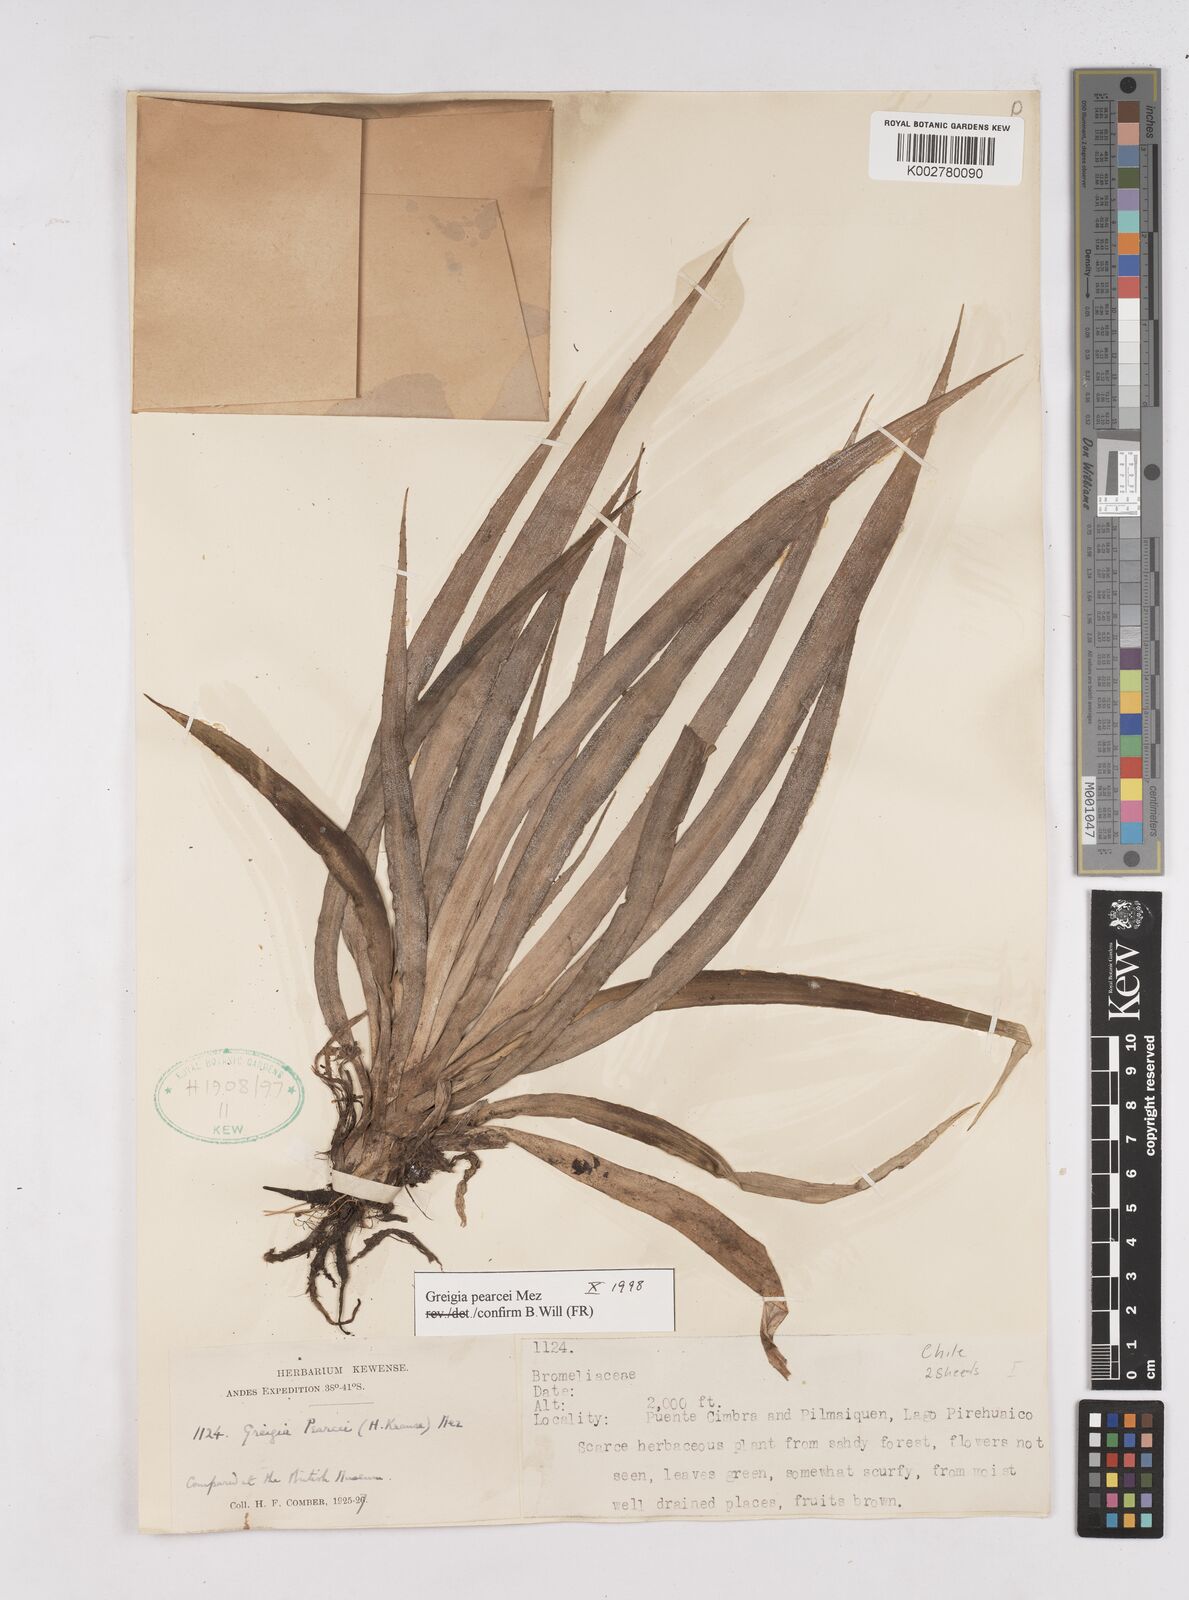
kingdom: Plantae
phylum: Tracheophyta
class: Liliopsida
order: Poales
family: Bromeliaceae
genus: Greigia
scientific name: Greigia pearcei
